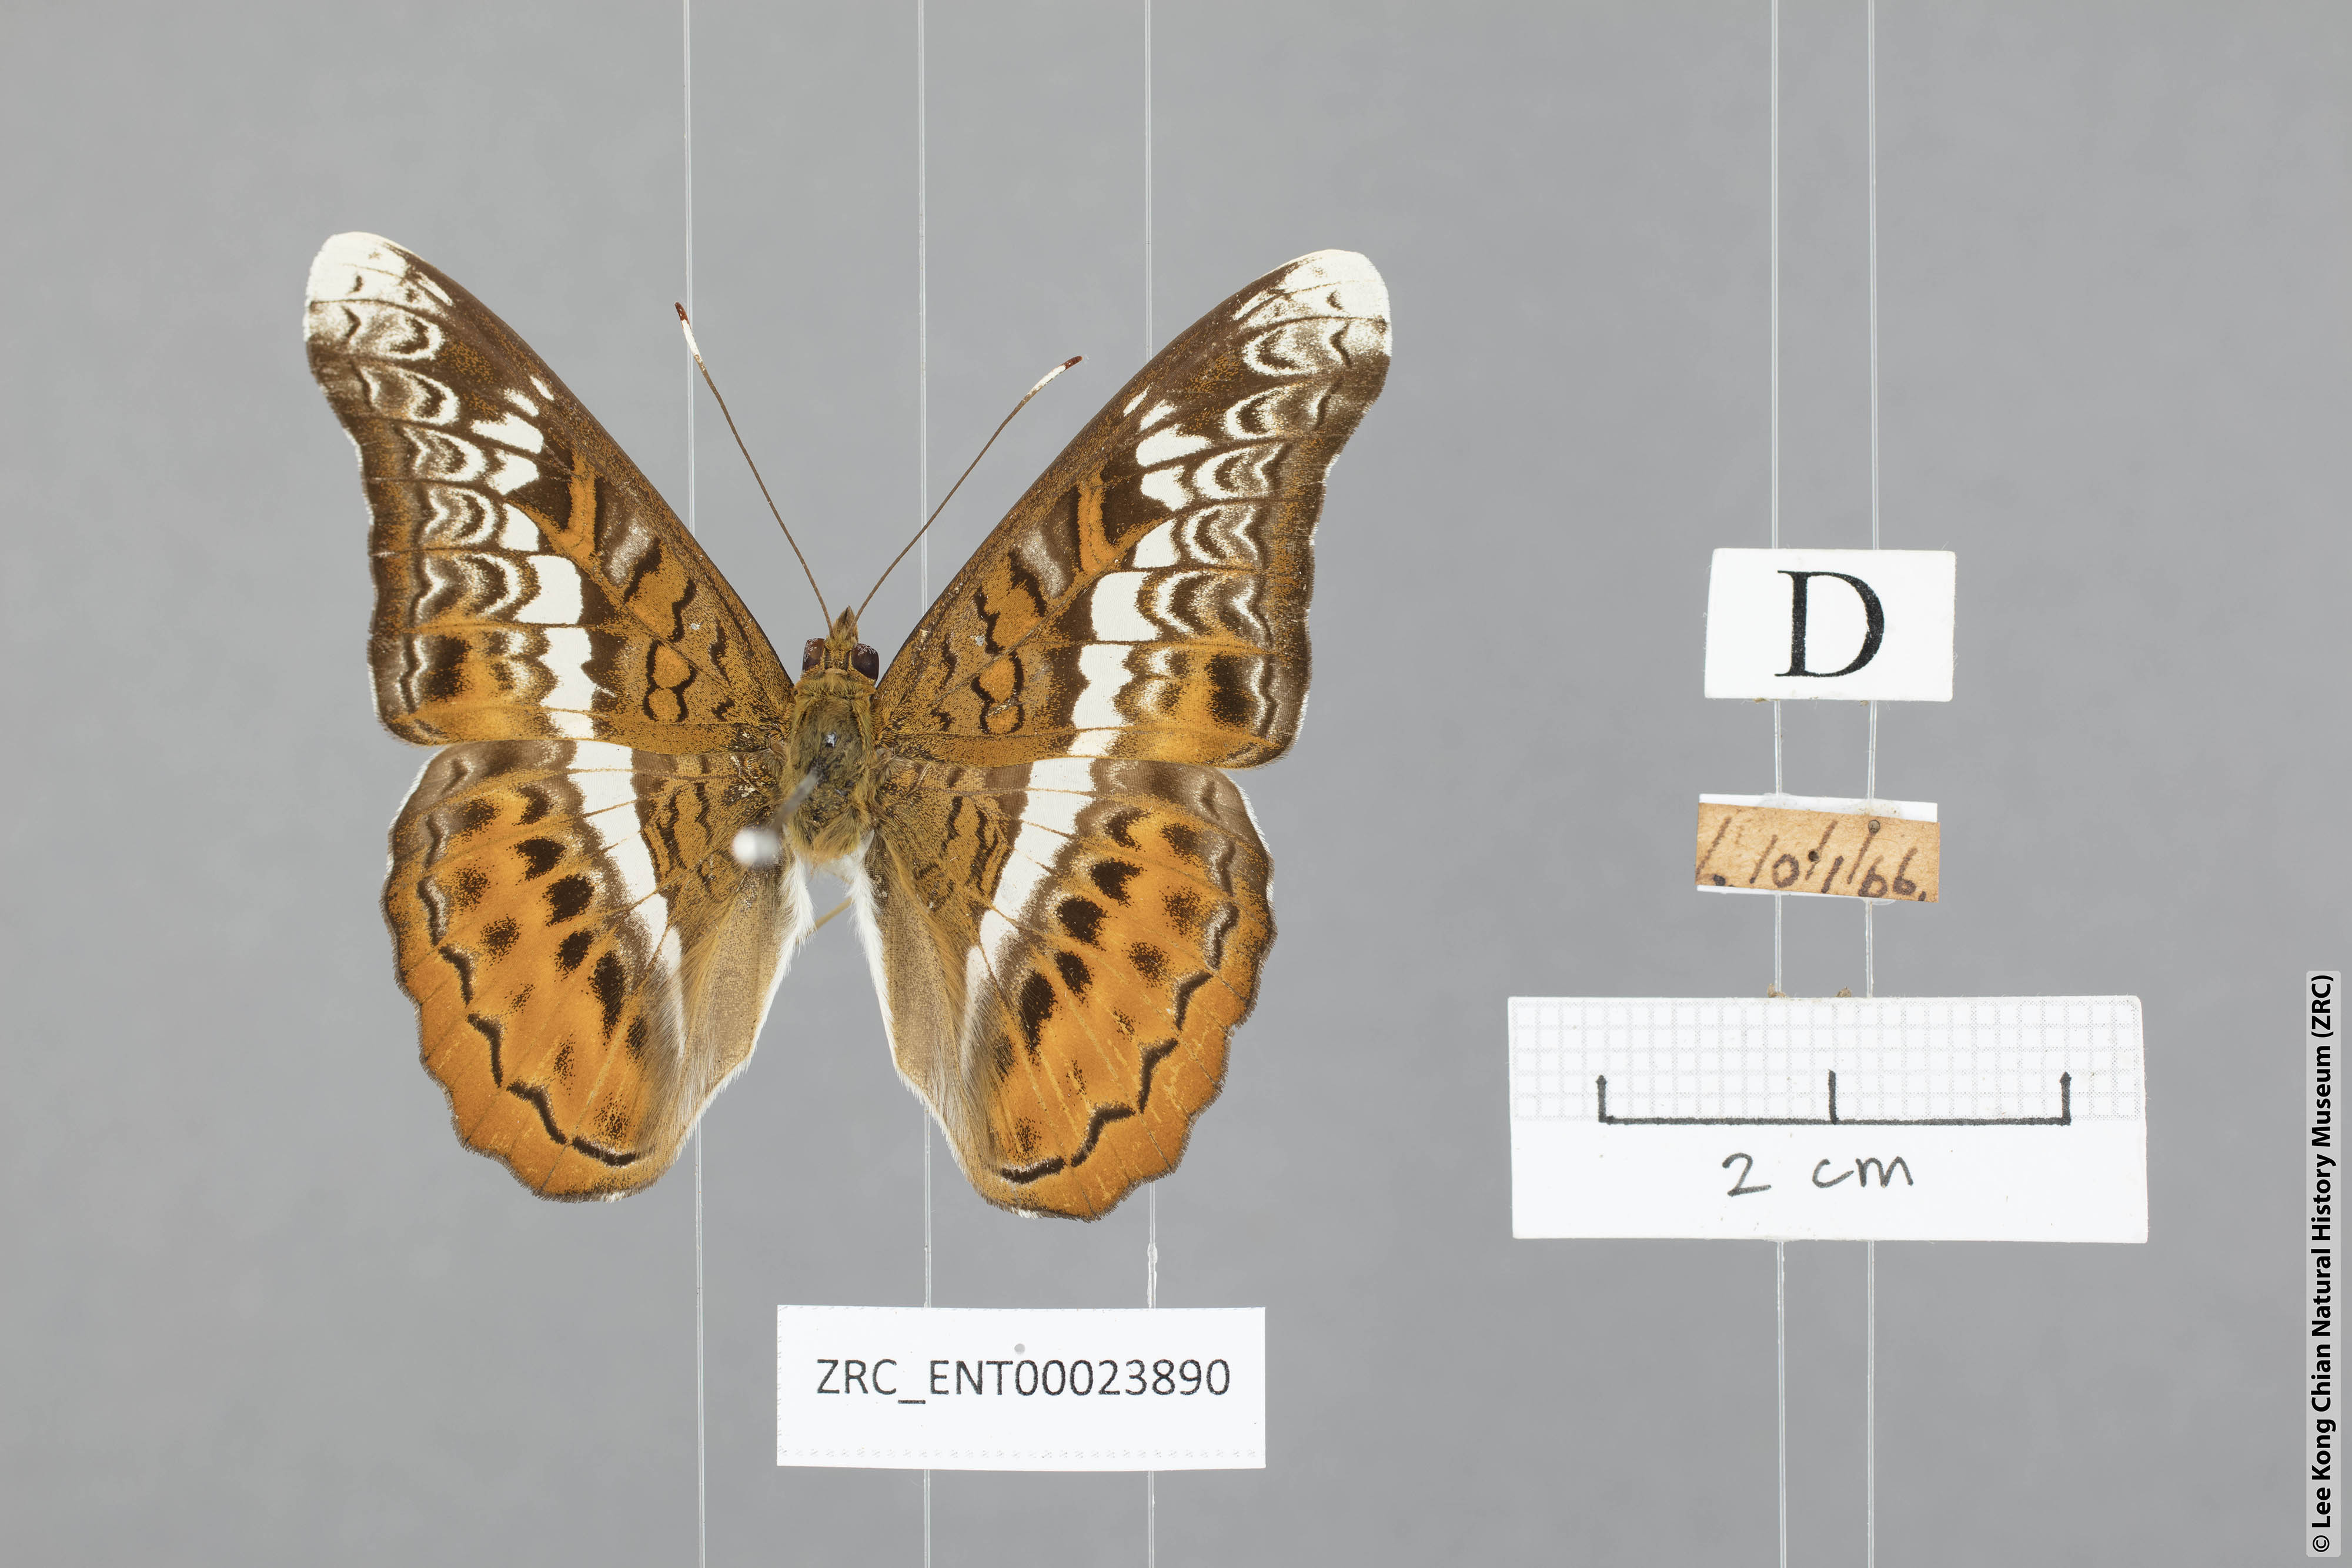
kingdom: Animalia
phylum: Arthropoda
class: Insecta
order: Lepidoptera
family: Nymphalidae
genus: Lebadea
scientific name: Lebadea martha
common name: Knight
